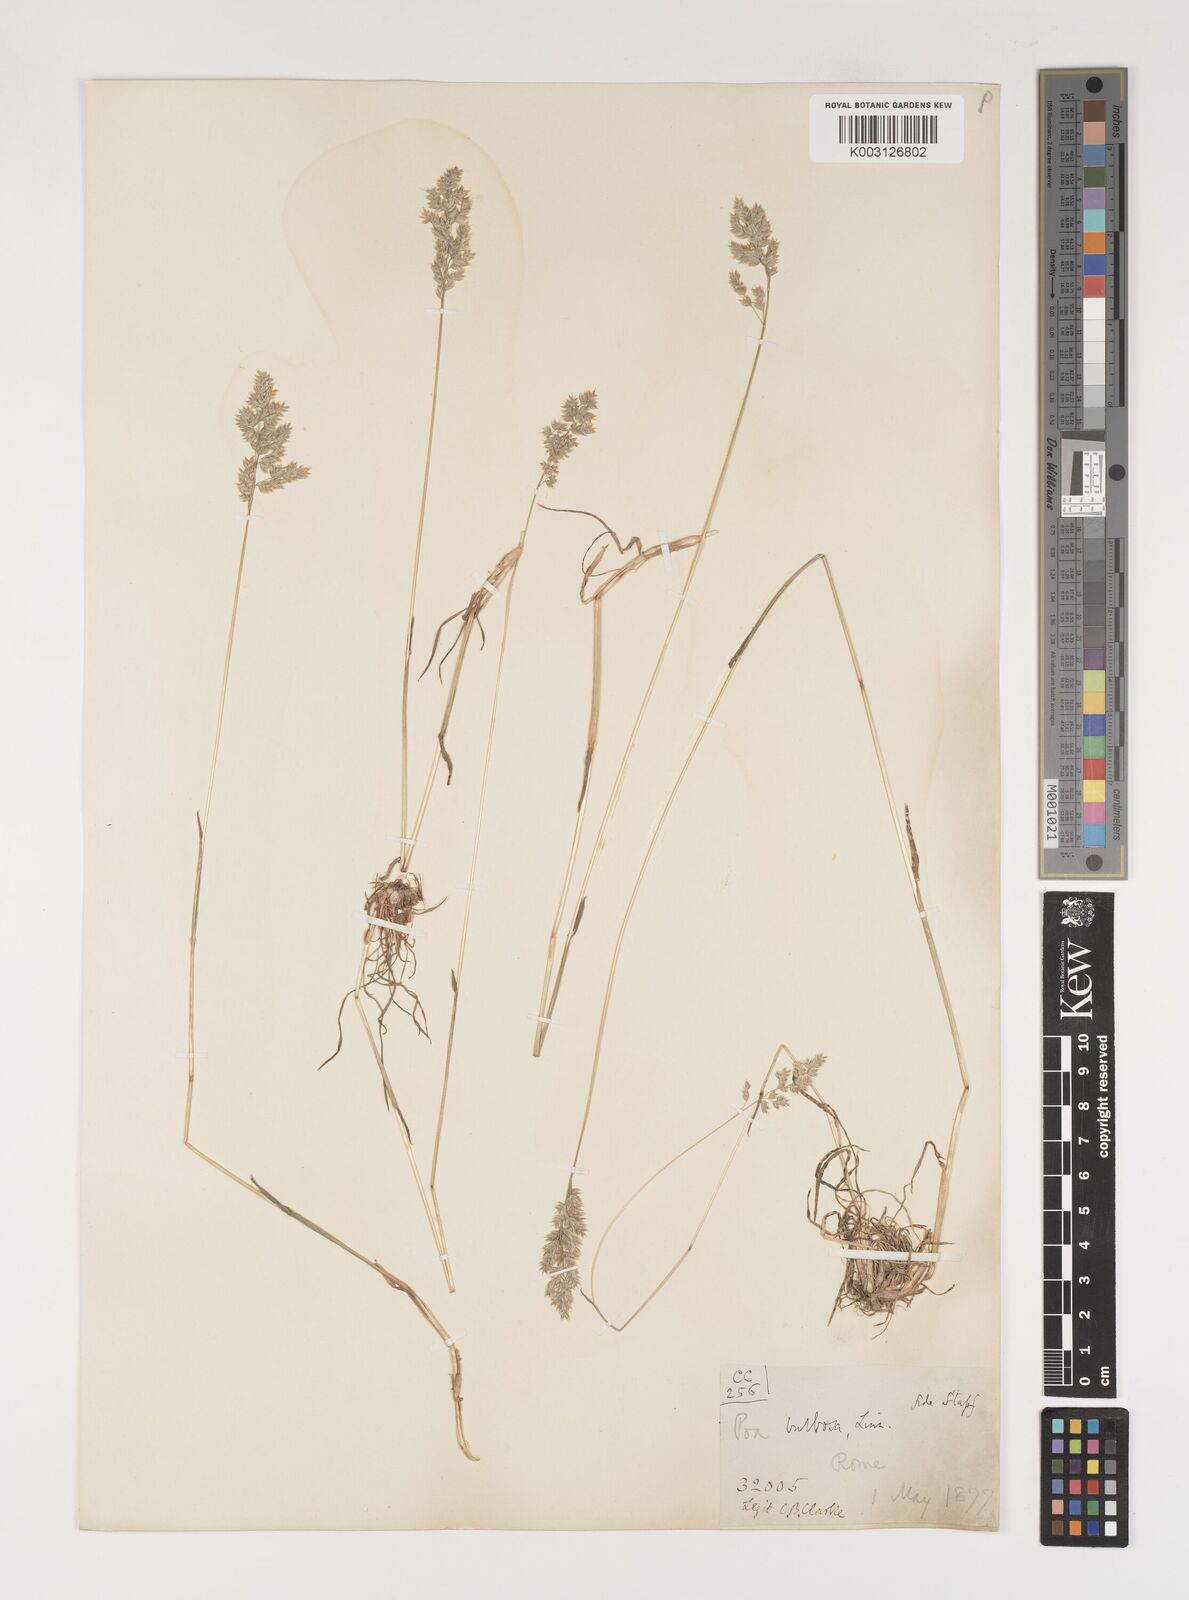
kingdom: Plantae
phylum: Tracheophyta
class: Liliopsida
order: Poales
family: Poaceae
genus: Poa
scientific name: Poa bulbosa
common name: Bulbous bluegrass
